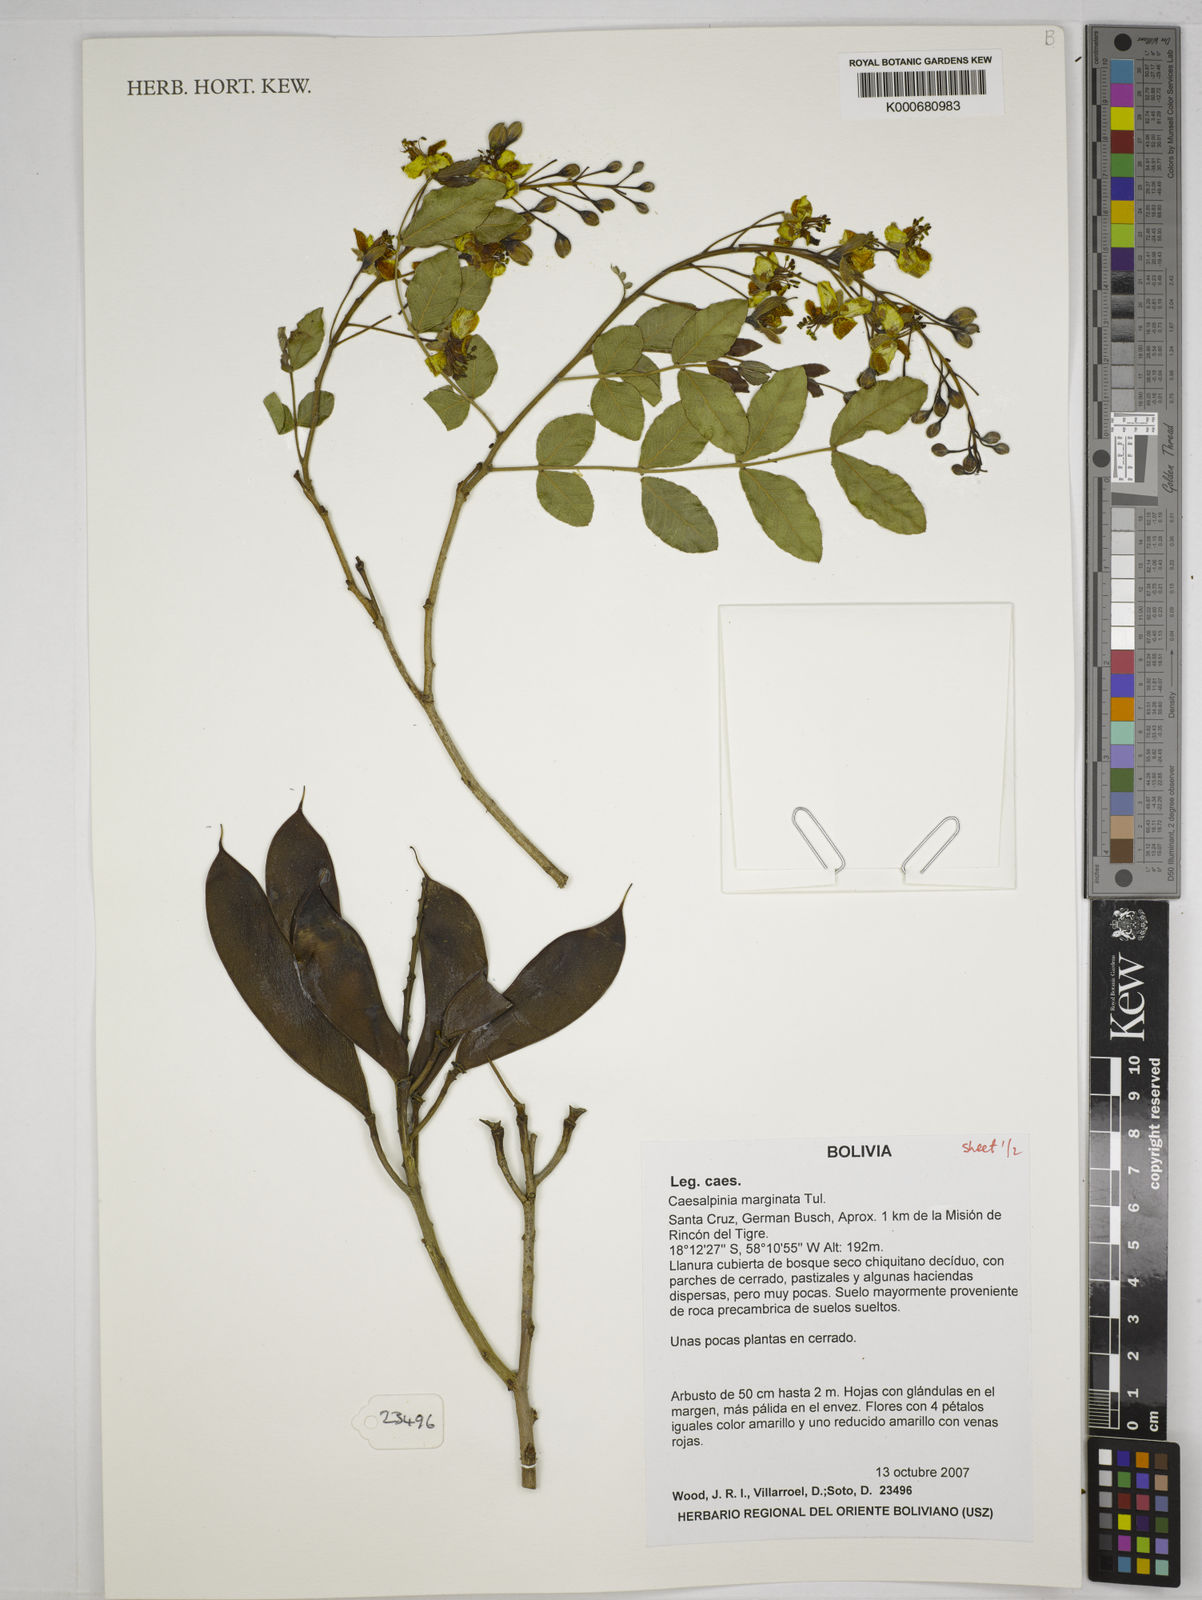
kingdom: Plantae
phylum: Tracheophyta
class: Magnoliopsida
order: Fabales
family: Fabaceae
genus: Cenostigma
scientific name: Cenostigma marginatum
